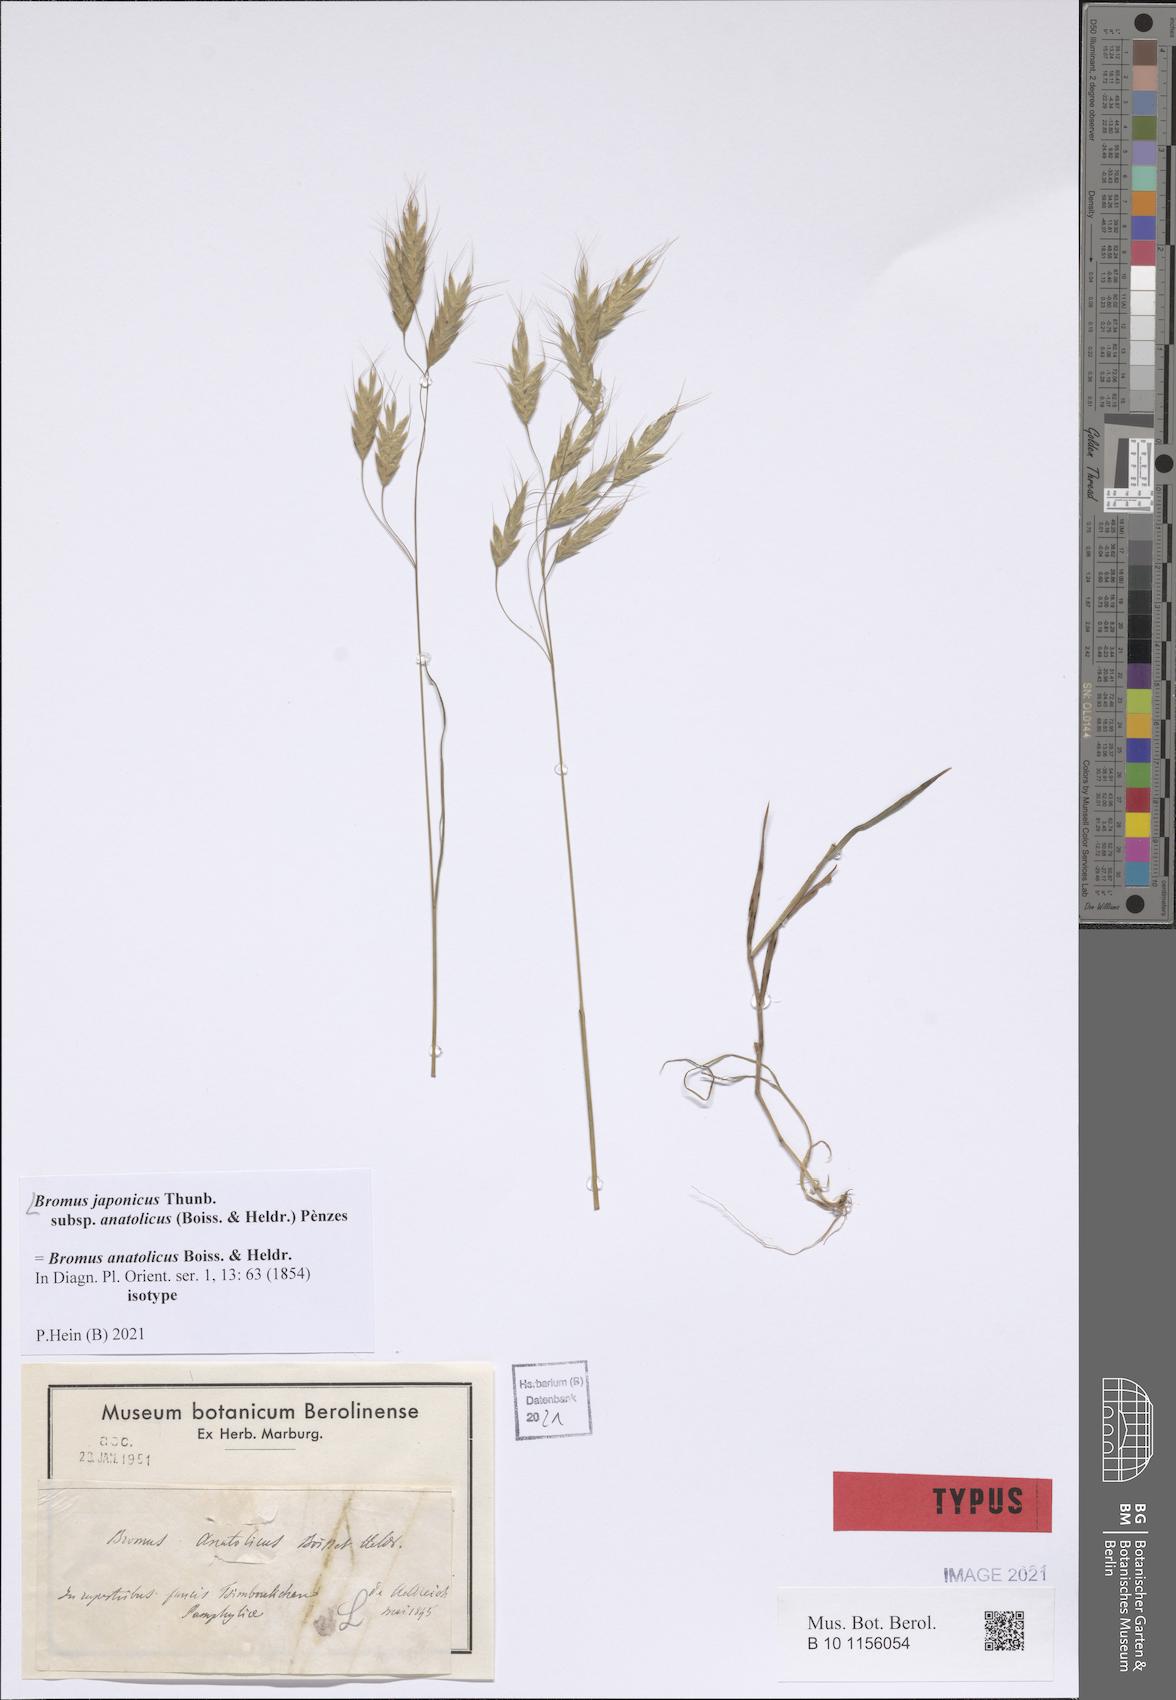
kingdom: Plantae
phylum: Tracheophyta
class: Liliopsida
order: Poales
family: Poaceae
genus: Bromus
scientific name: Bromus japonicus
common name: Japanese brome
